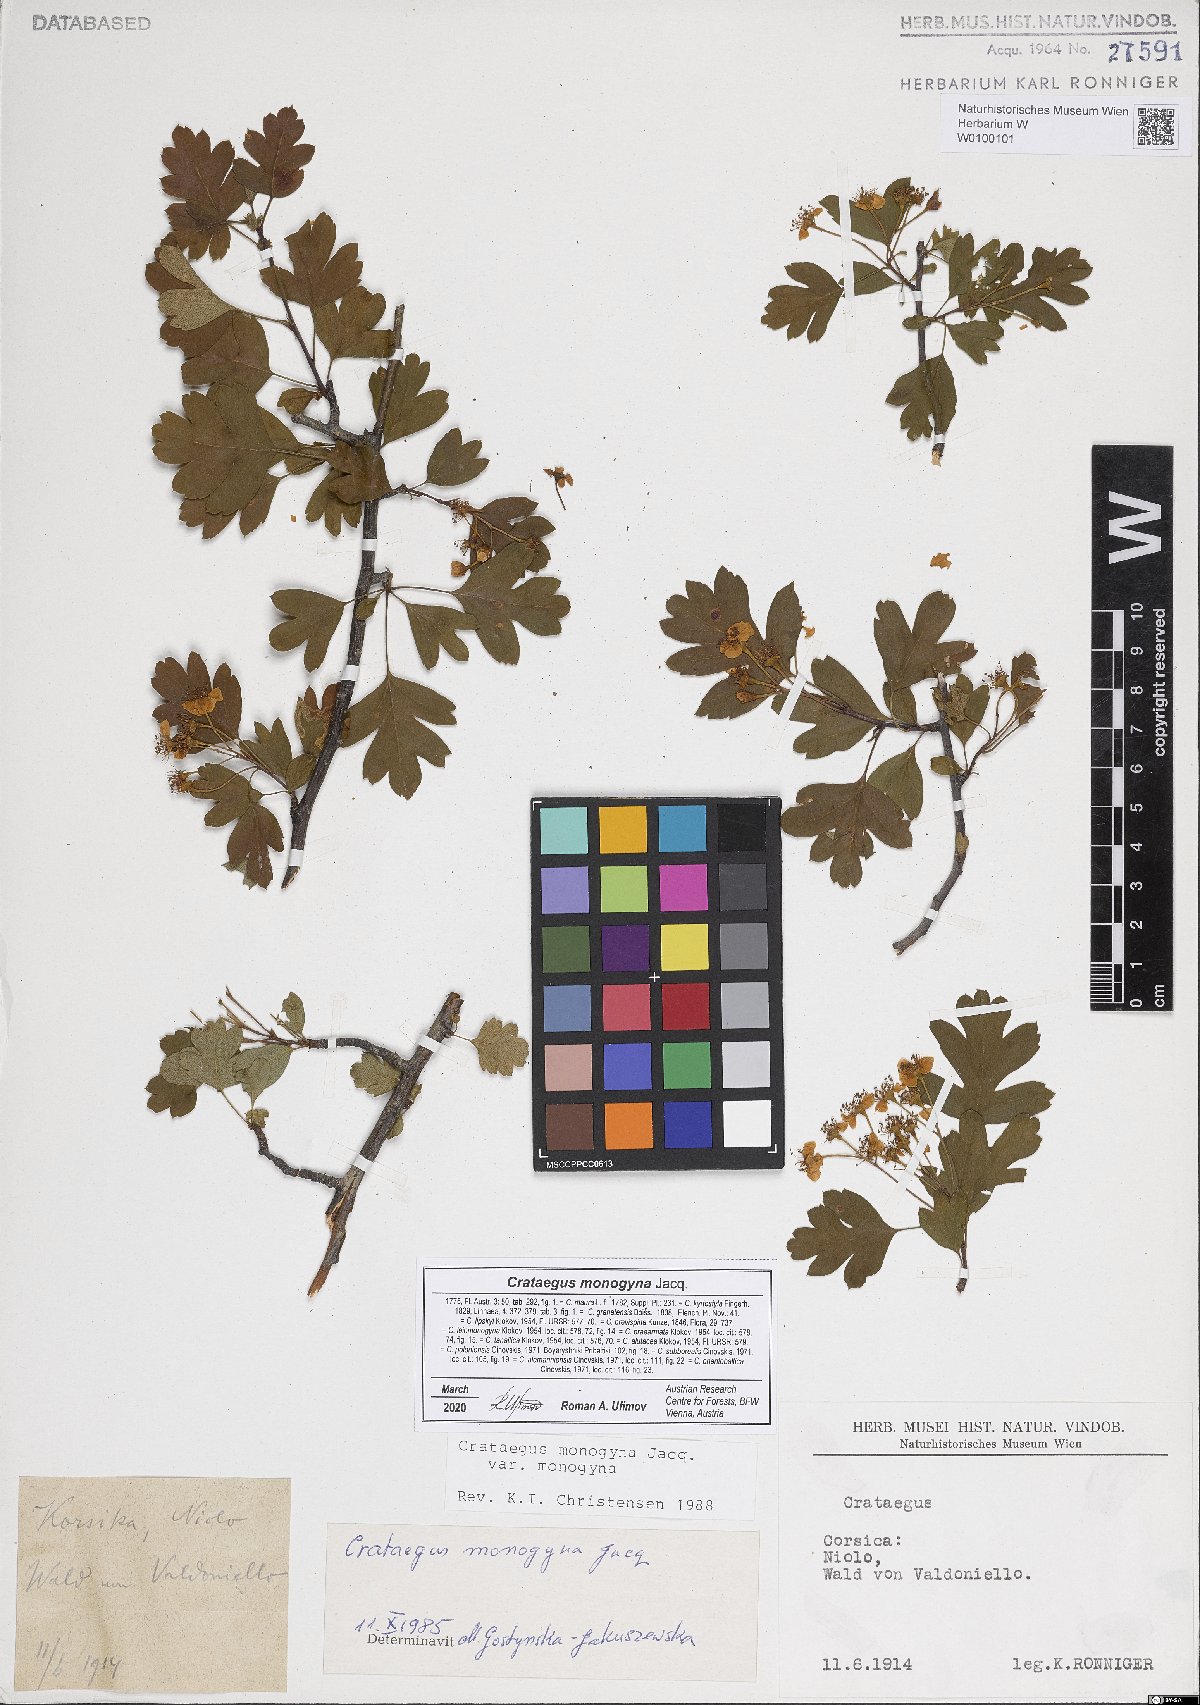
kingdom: Plantae
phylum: Tracheophyta
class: Magnoliopsida
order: Rosales
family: Rosaceae
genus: Crataegus
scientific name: Crataegus monogyna
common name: Hawthorn
